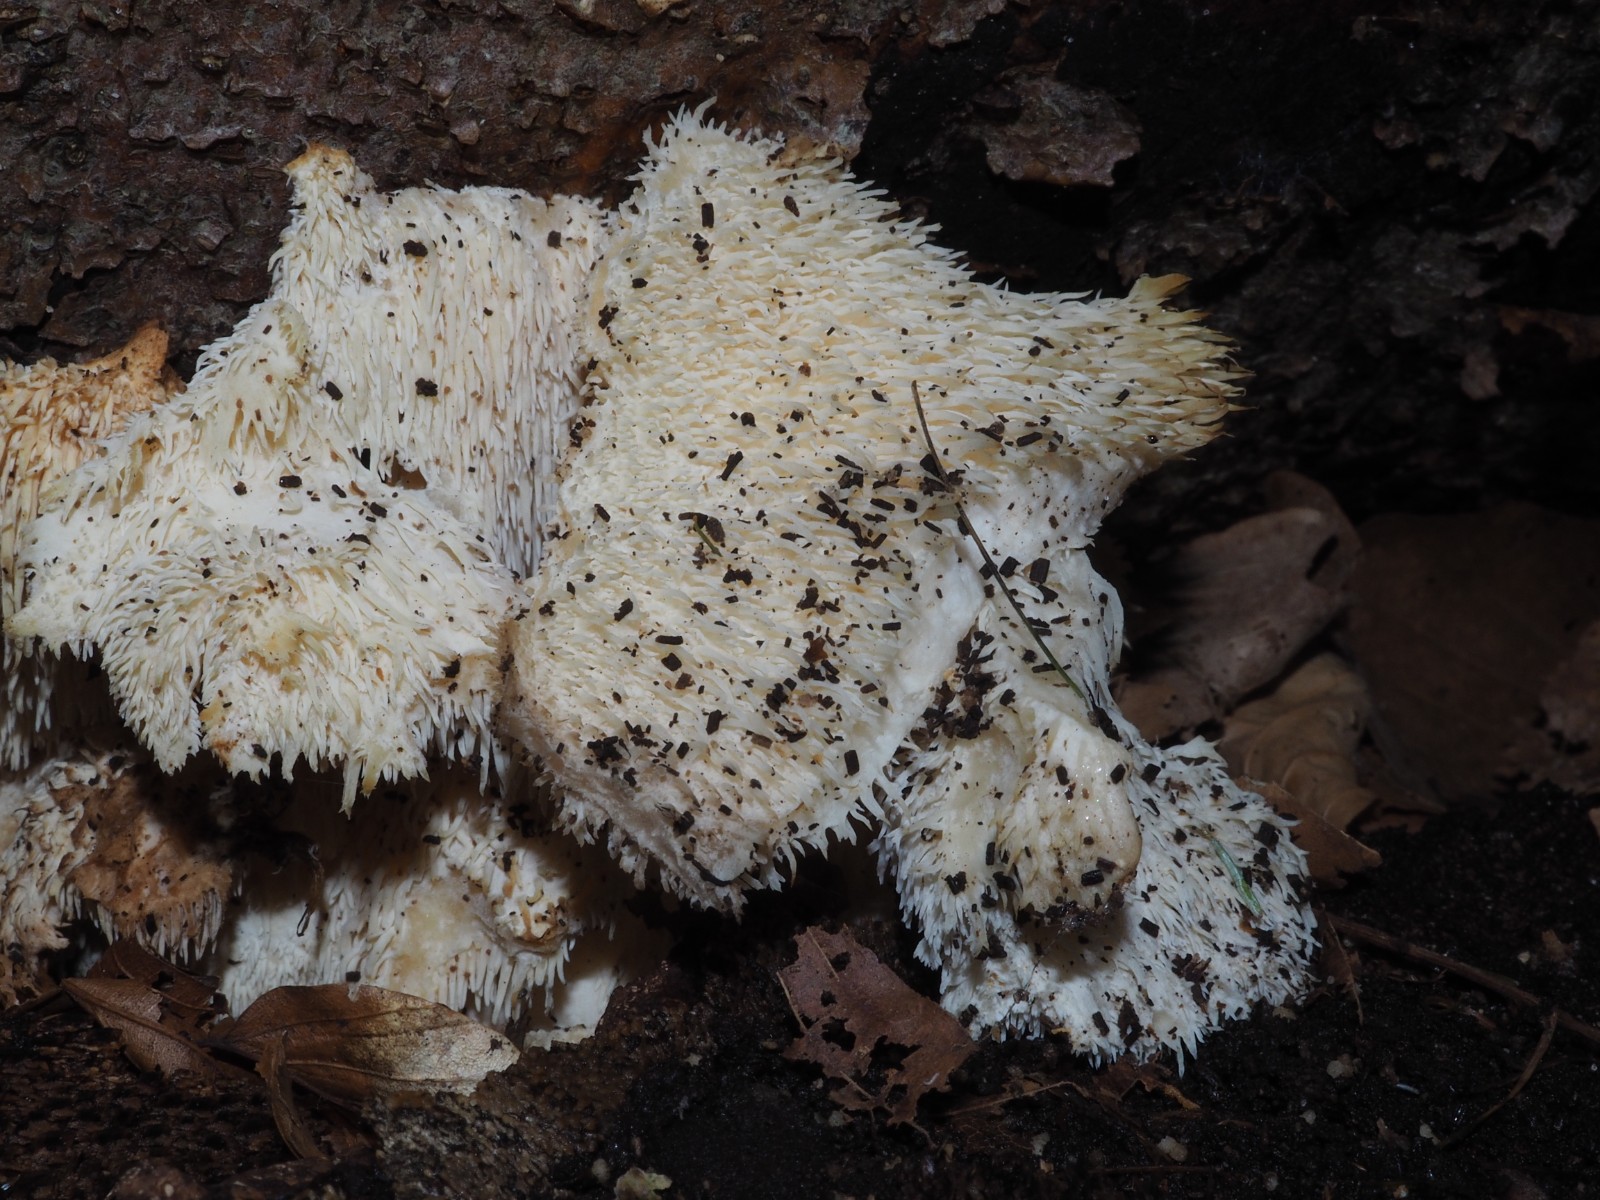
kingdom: Fungi
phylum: Basidiomycota
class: Agaricomycetes
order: Russulales
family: Hericiaceae
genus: Hericium
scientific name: Hericium cirrhatum
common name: børstepigsvamp
